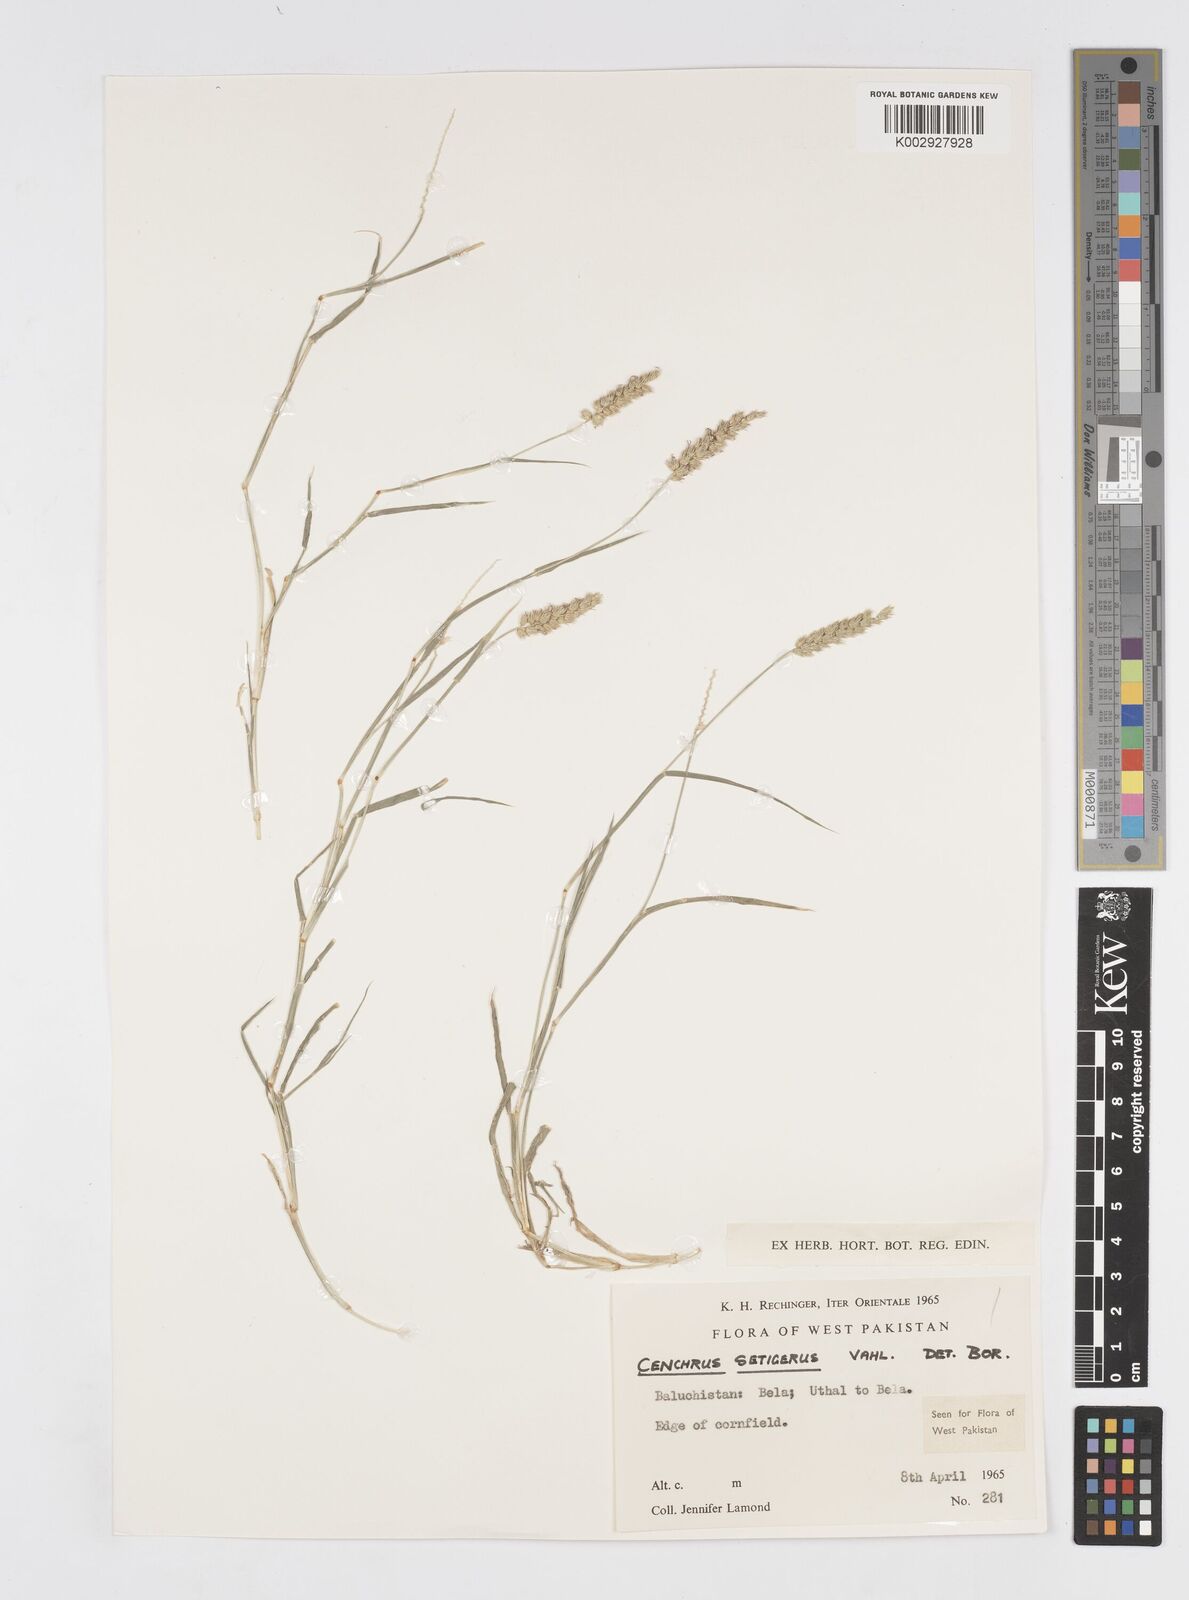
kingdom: Plantae
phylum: Tracheophyta
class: Liliopsida
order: Poales
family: Poaceae
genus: Cenchrus
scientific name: Cenchrus setigerus
